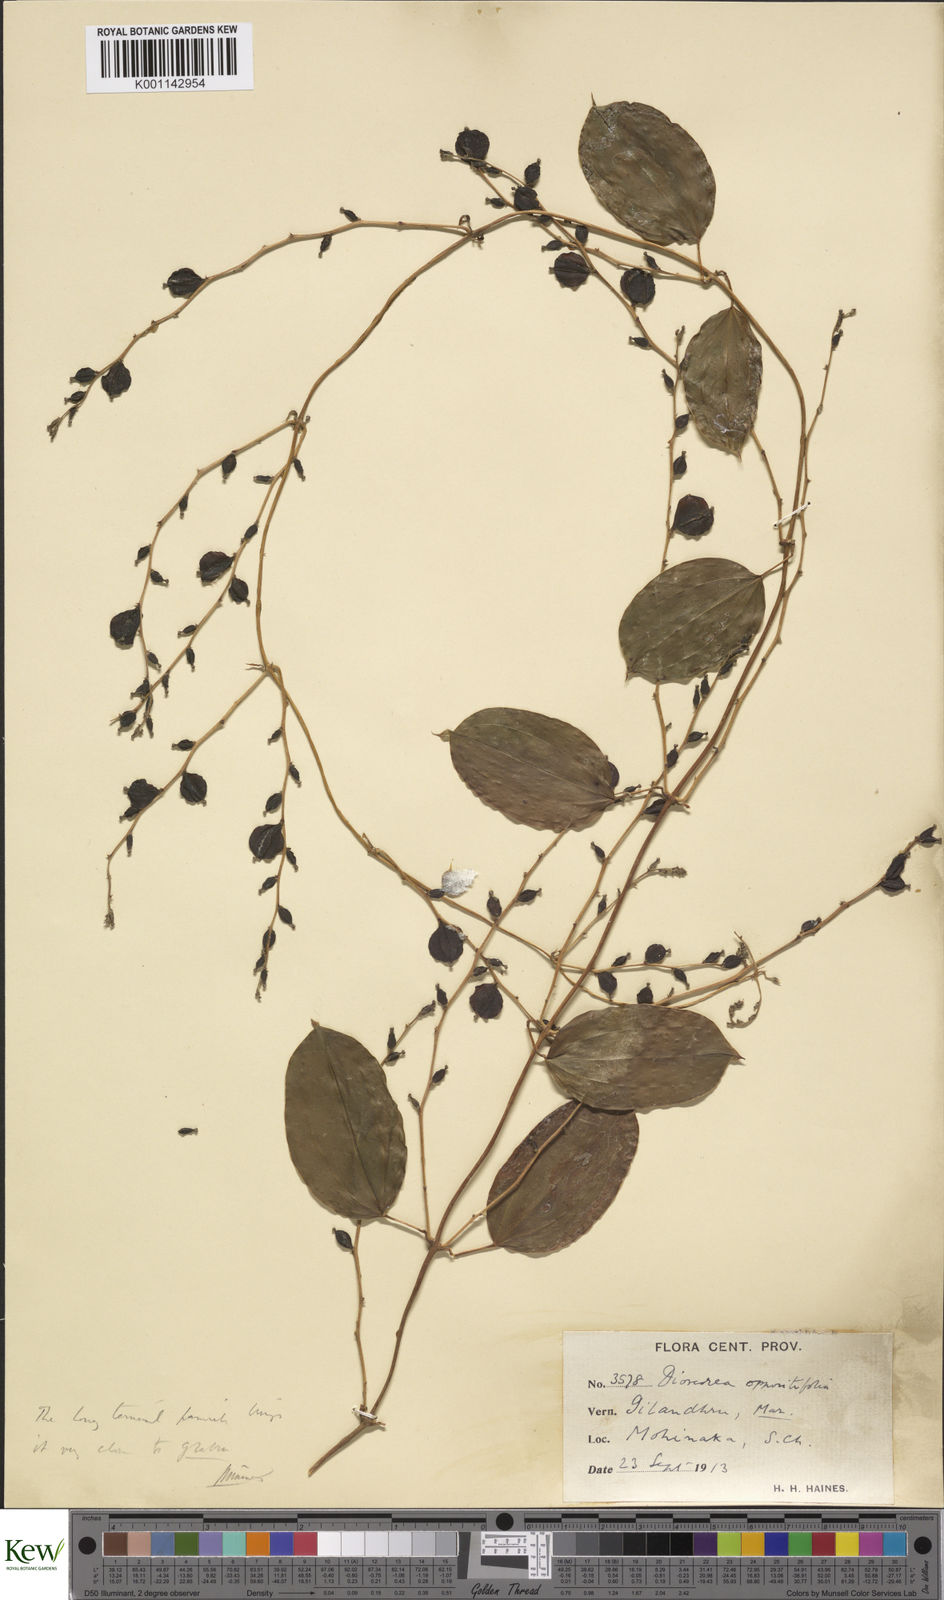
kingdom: Plantae
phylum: Tracheophyta
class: Liliopsida
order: Dioscoreales
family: Dioscoreaceae
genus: Dioscorea
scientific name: Dioscorea oppositifolia
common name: Chinese yam
